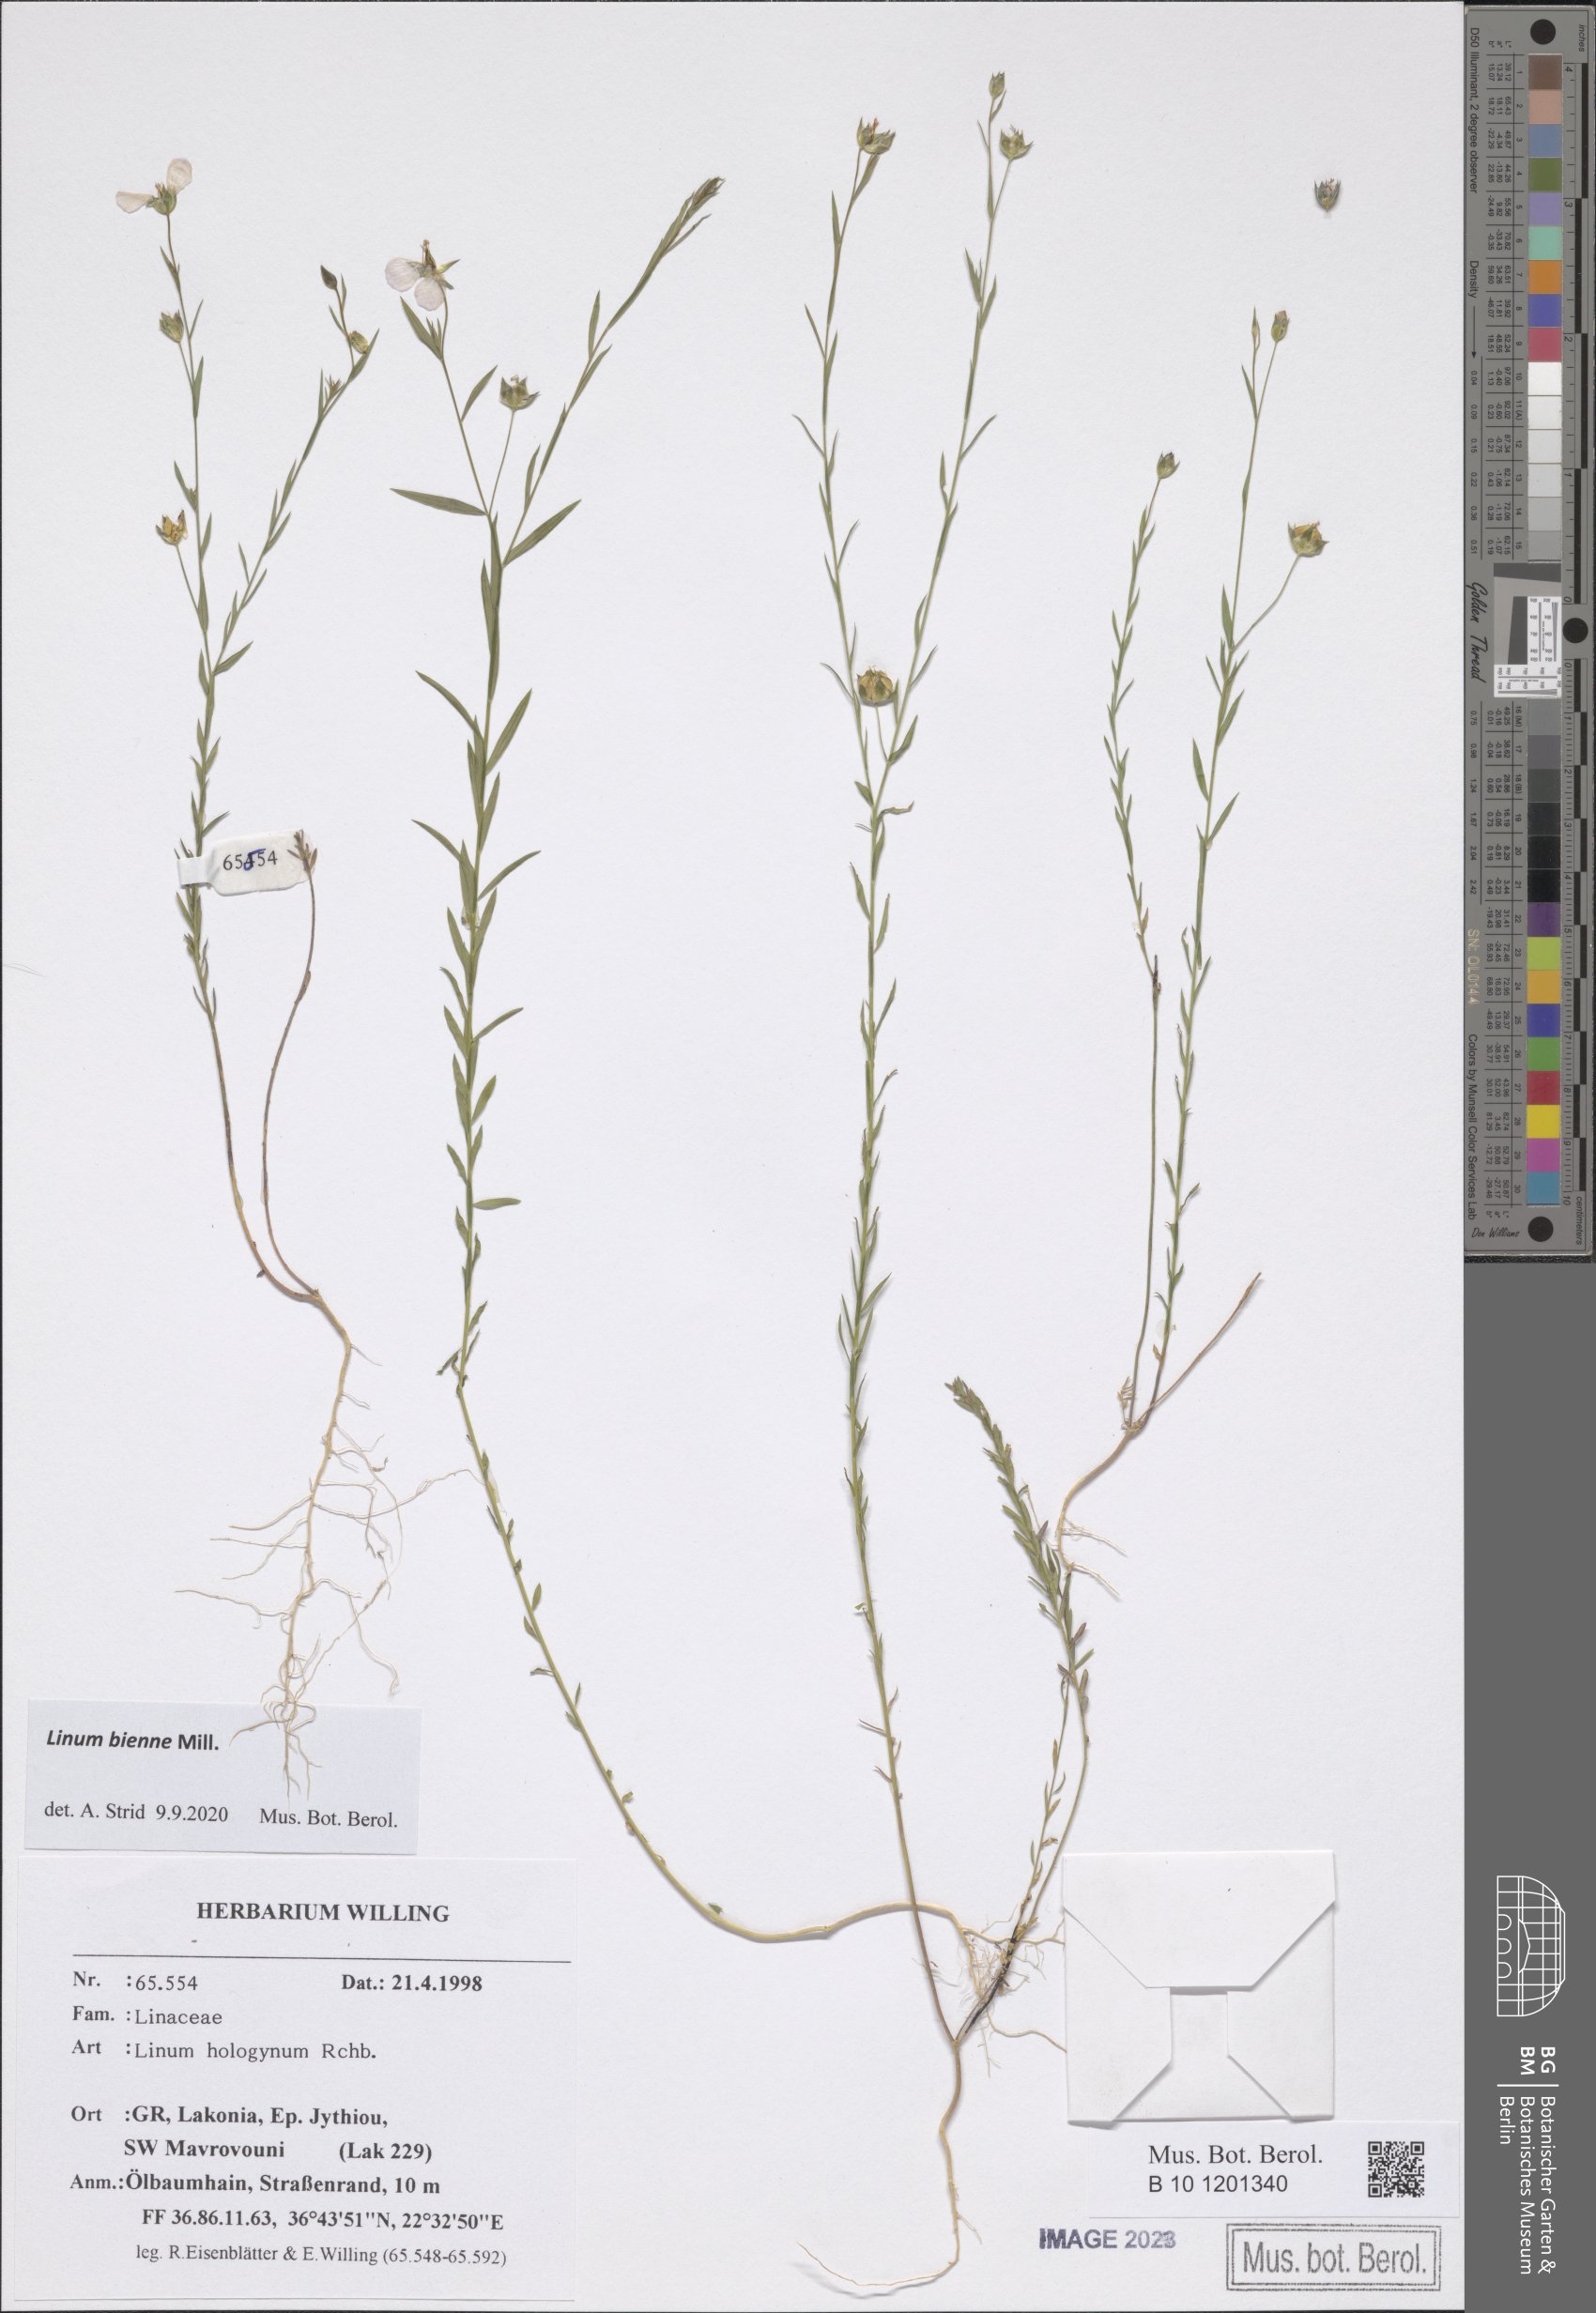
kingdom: Plantae
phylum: Tracheophyta
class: Magnoliopsida
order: Malpighiales
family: Linaceae
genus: Linum
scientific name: Linum bienne
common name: Pale flax
